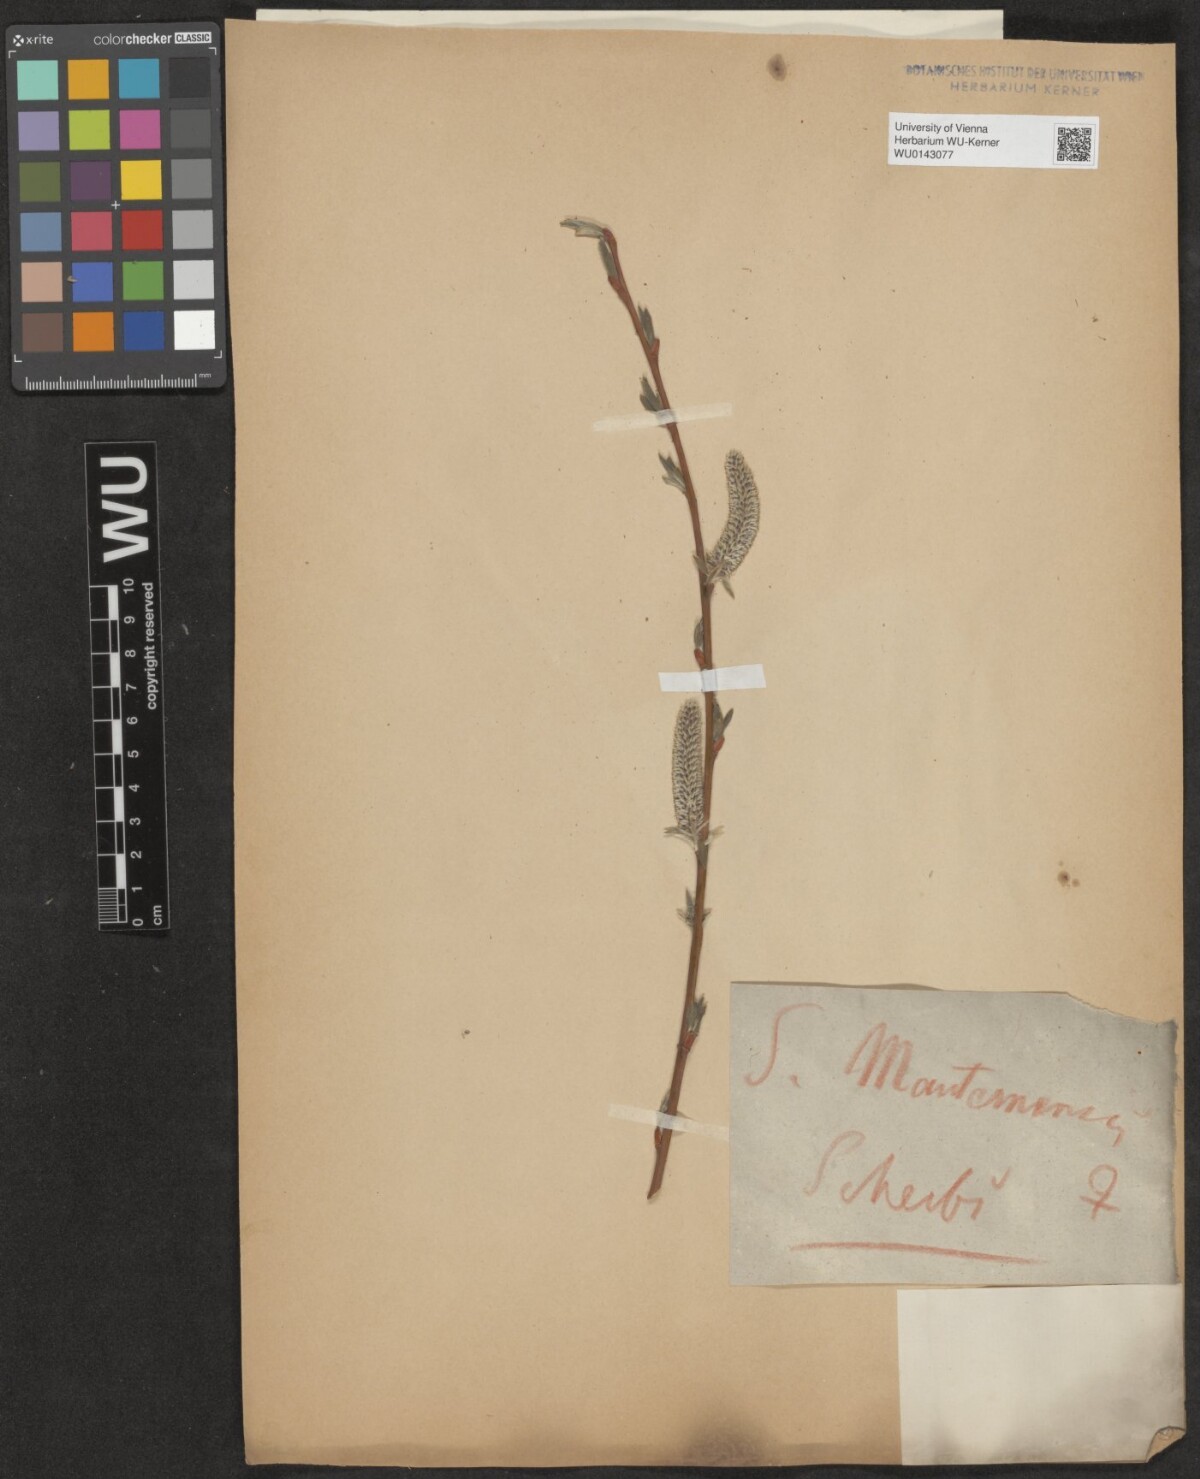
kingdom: Plantae
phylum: Tracheophyta
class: Magnoliopsida
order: Malpighiales
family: Salicaceae
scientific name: Salicaceae
